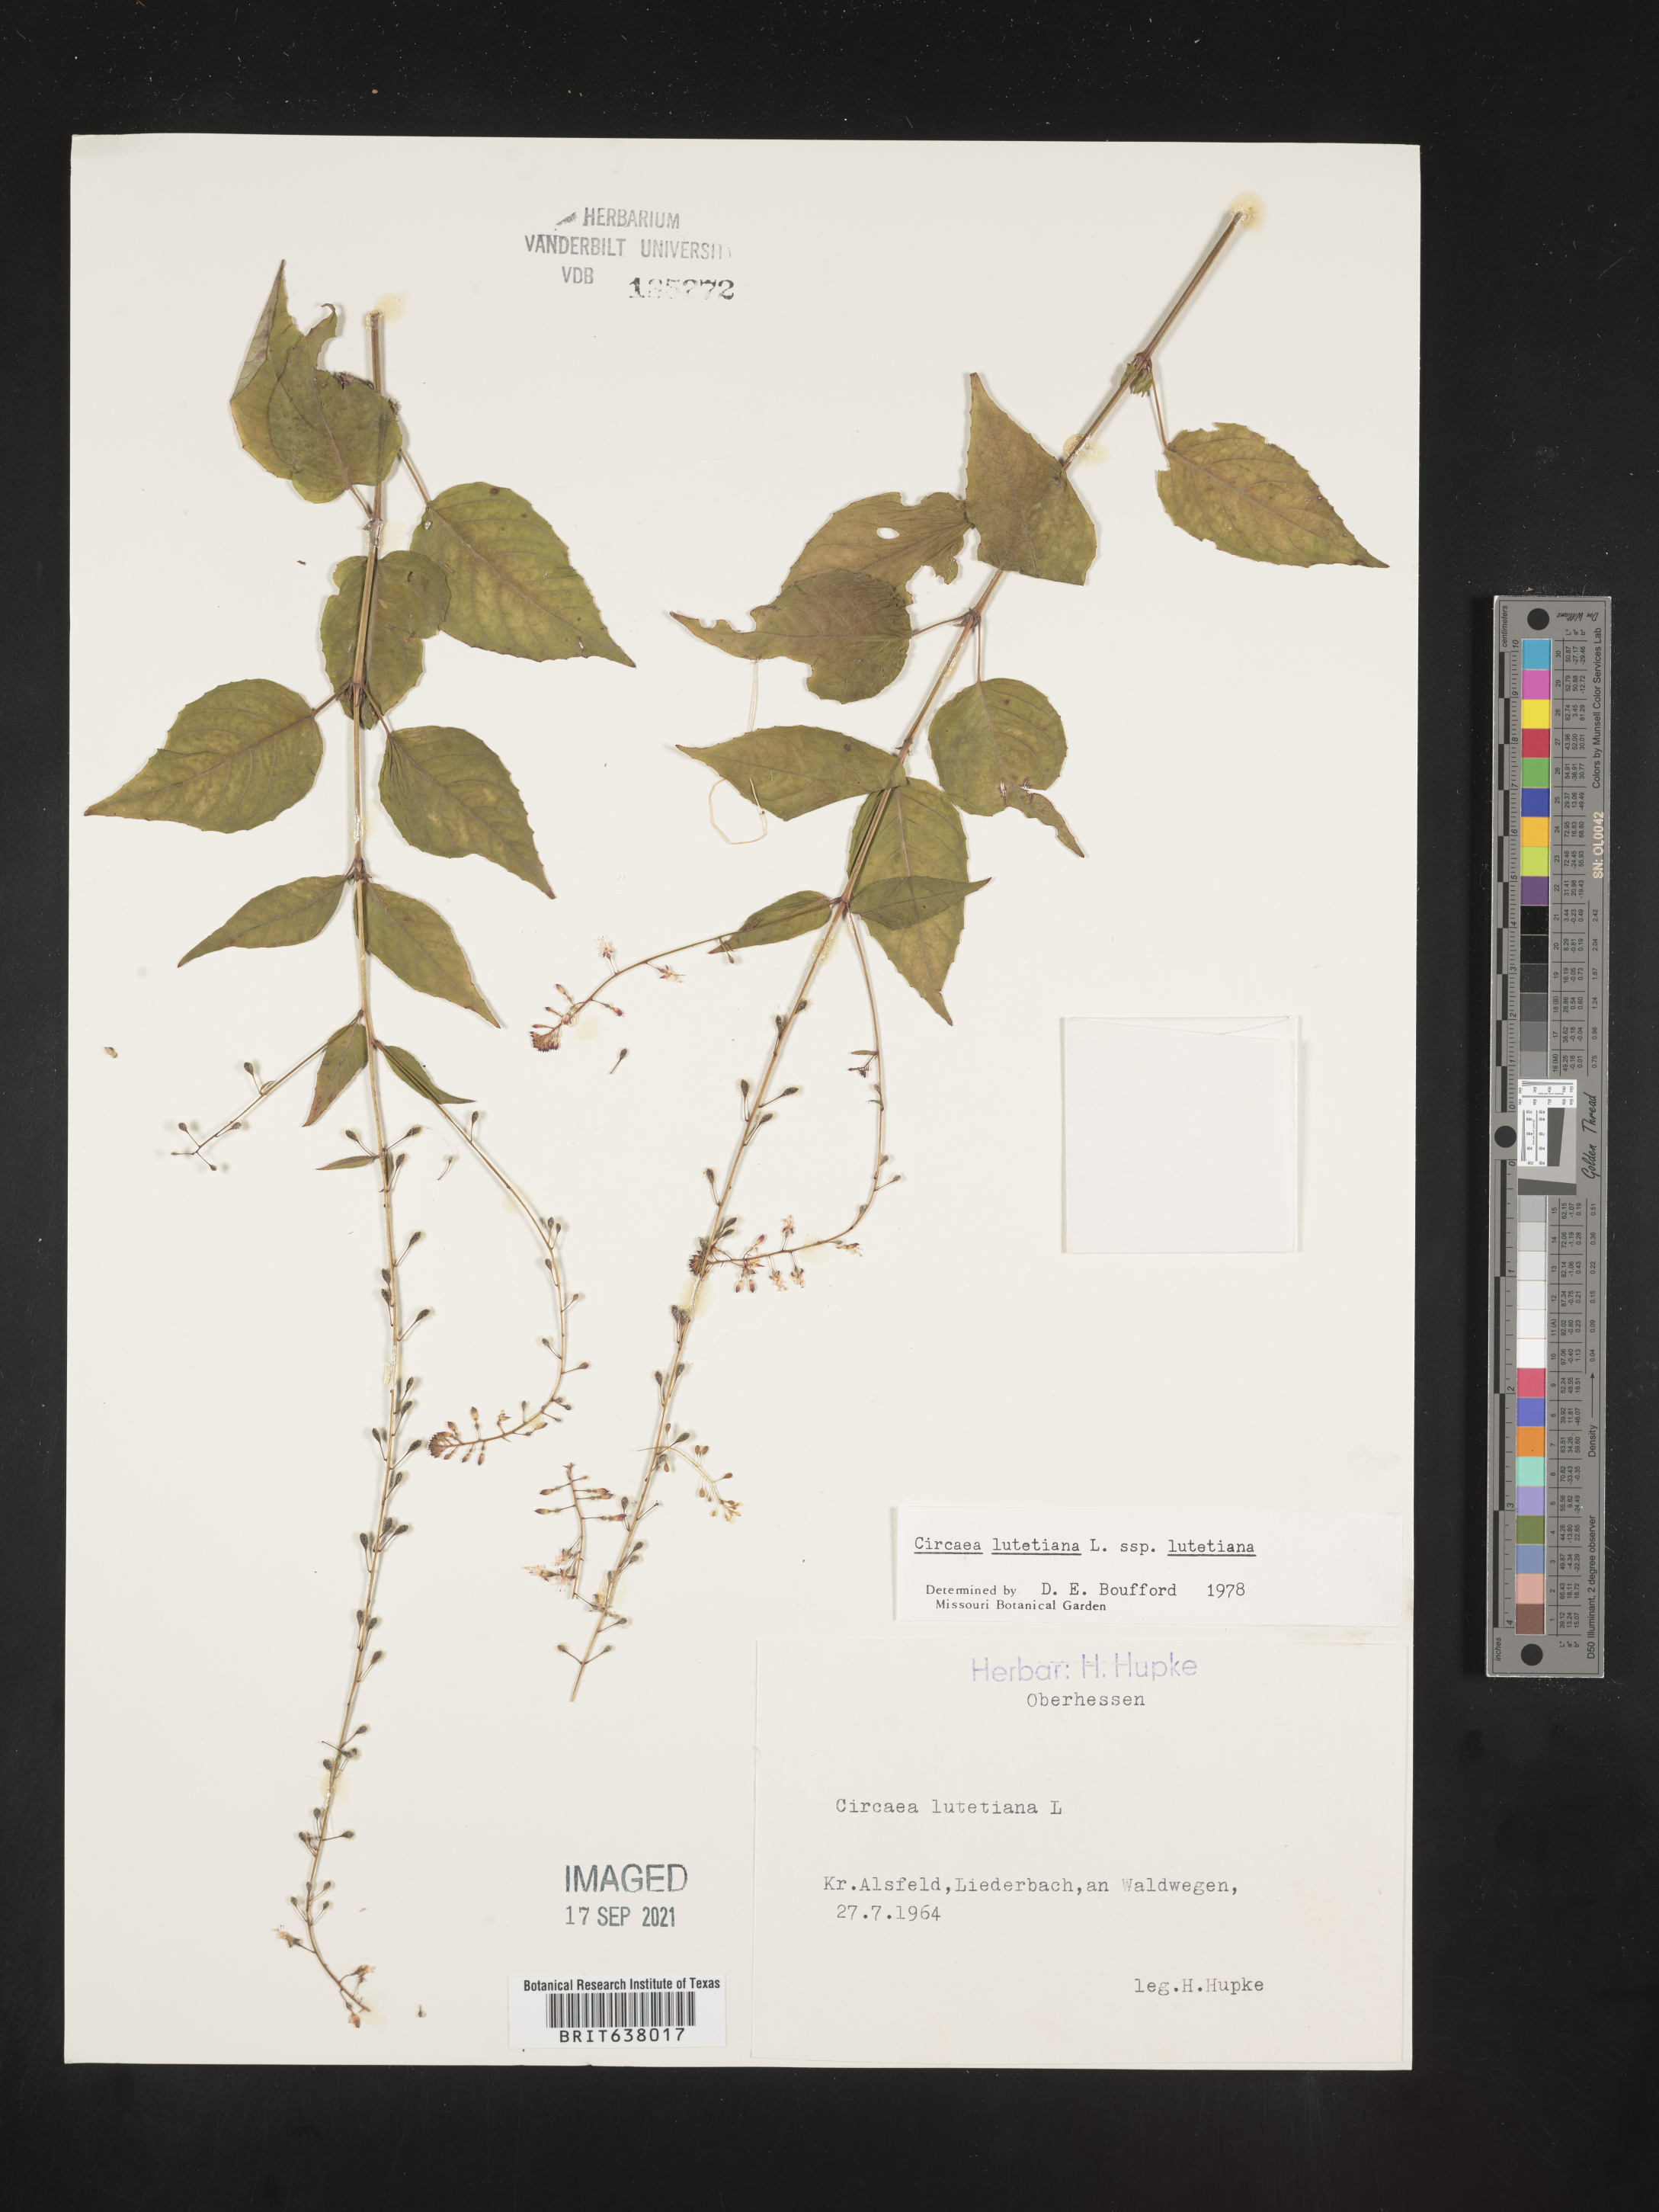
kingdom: Plantae
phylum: Tracheophyta
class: Magnoliopsida
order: Myrtales
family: Onagraceae
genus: Circaea
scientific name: Circaea
